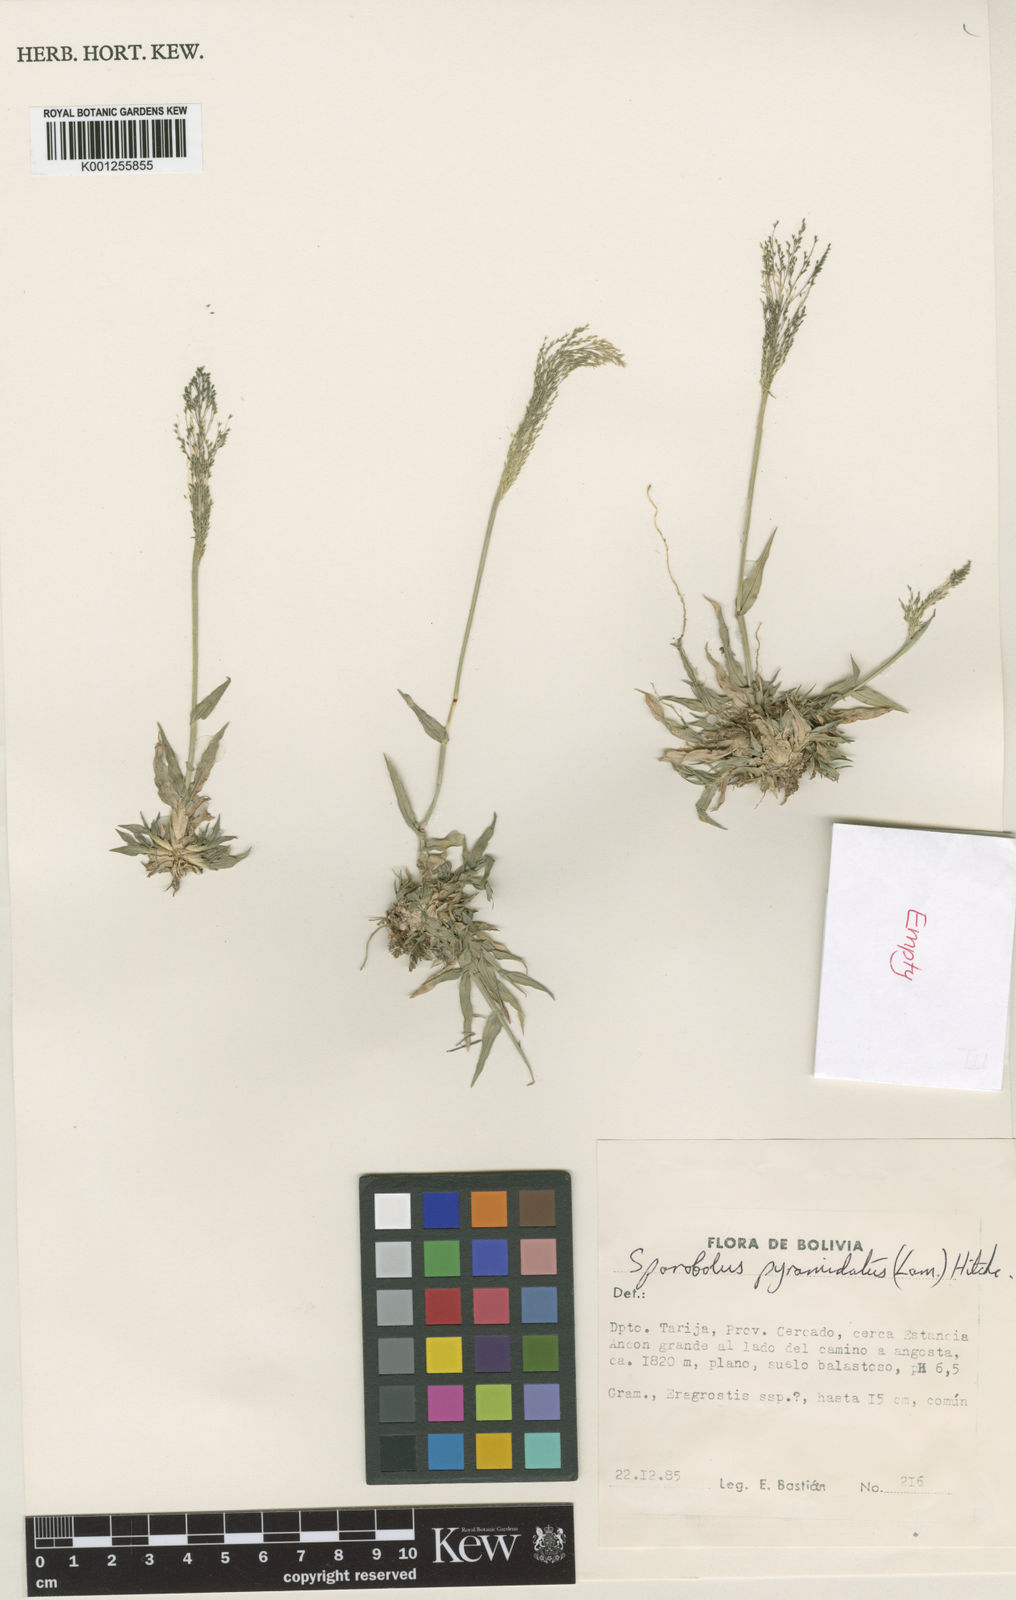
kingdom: Plantae
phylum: Tracheophyta
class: Liliopsida
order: Poales
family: Poaceae
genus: Sporobolus
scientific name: Sporobolus pyramidatus
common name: Whorled dropseed
